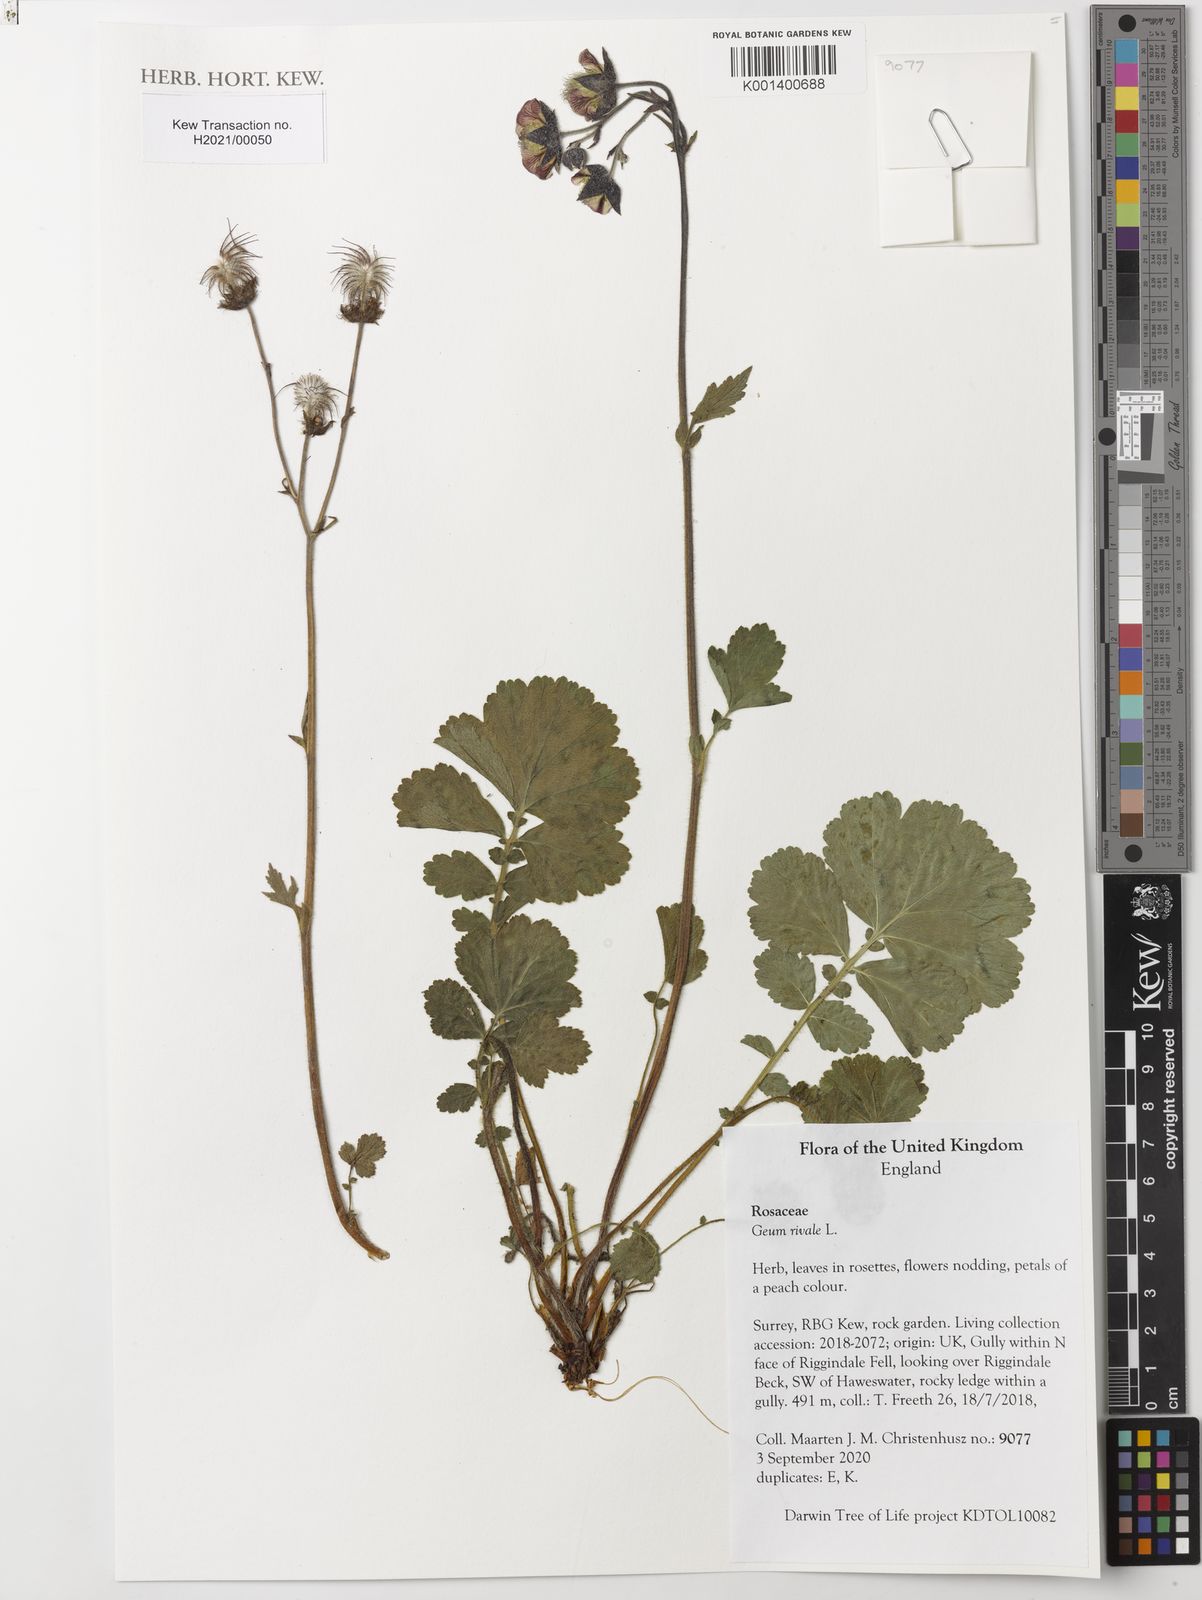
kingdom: Plantae
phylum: Tracheophyta
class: Magnoliopsida
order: Rosales
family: Rosaceae
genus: Geum
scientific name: Geum rivale
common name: Water avens
